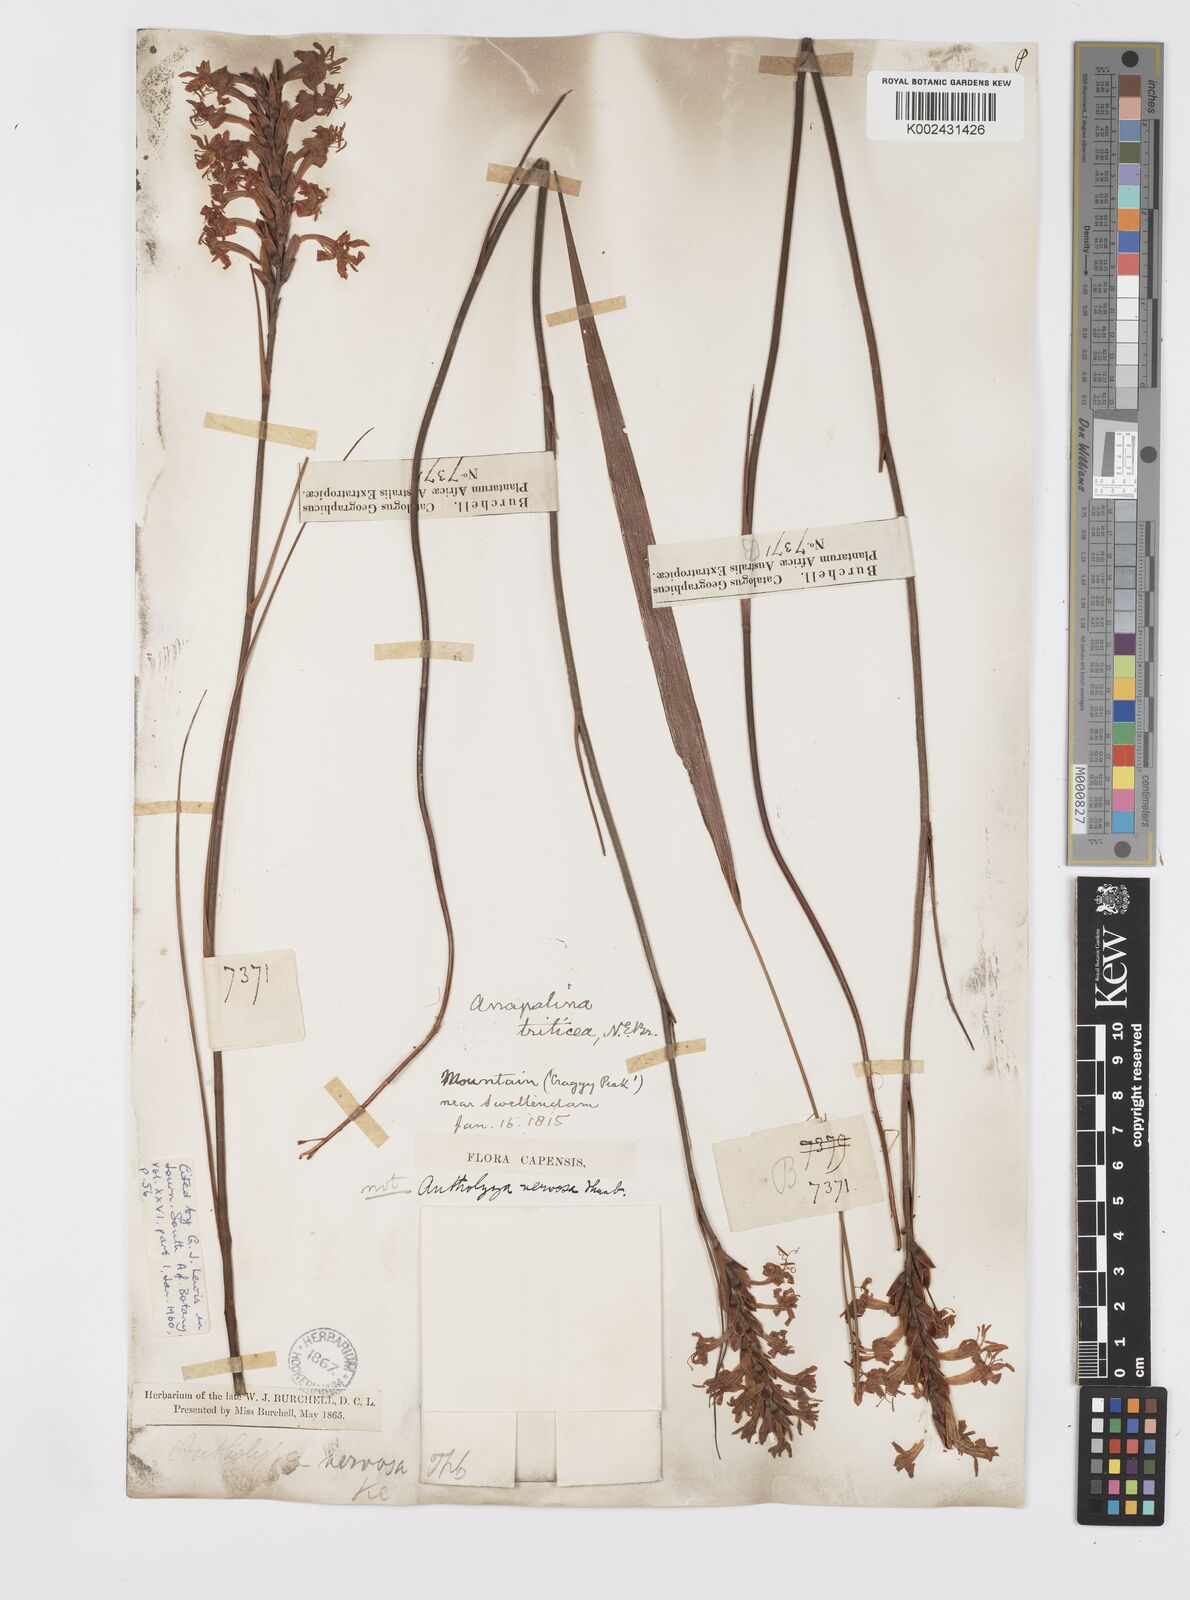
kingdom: Plantae
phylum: Tracheophyta
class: Liliopsida
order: Asparagales
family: Iridaceae
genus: Tritoniopsis
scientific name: Tritoniopsis triticea
